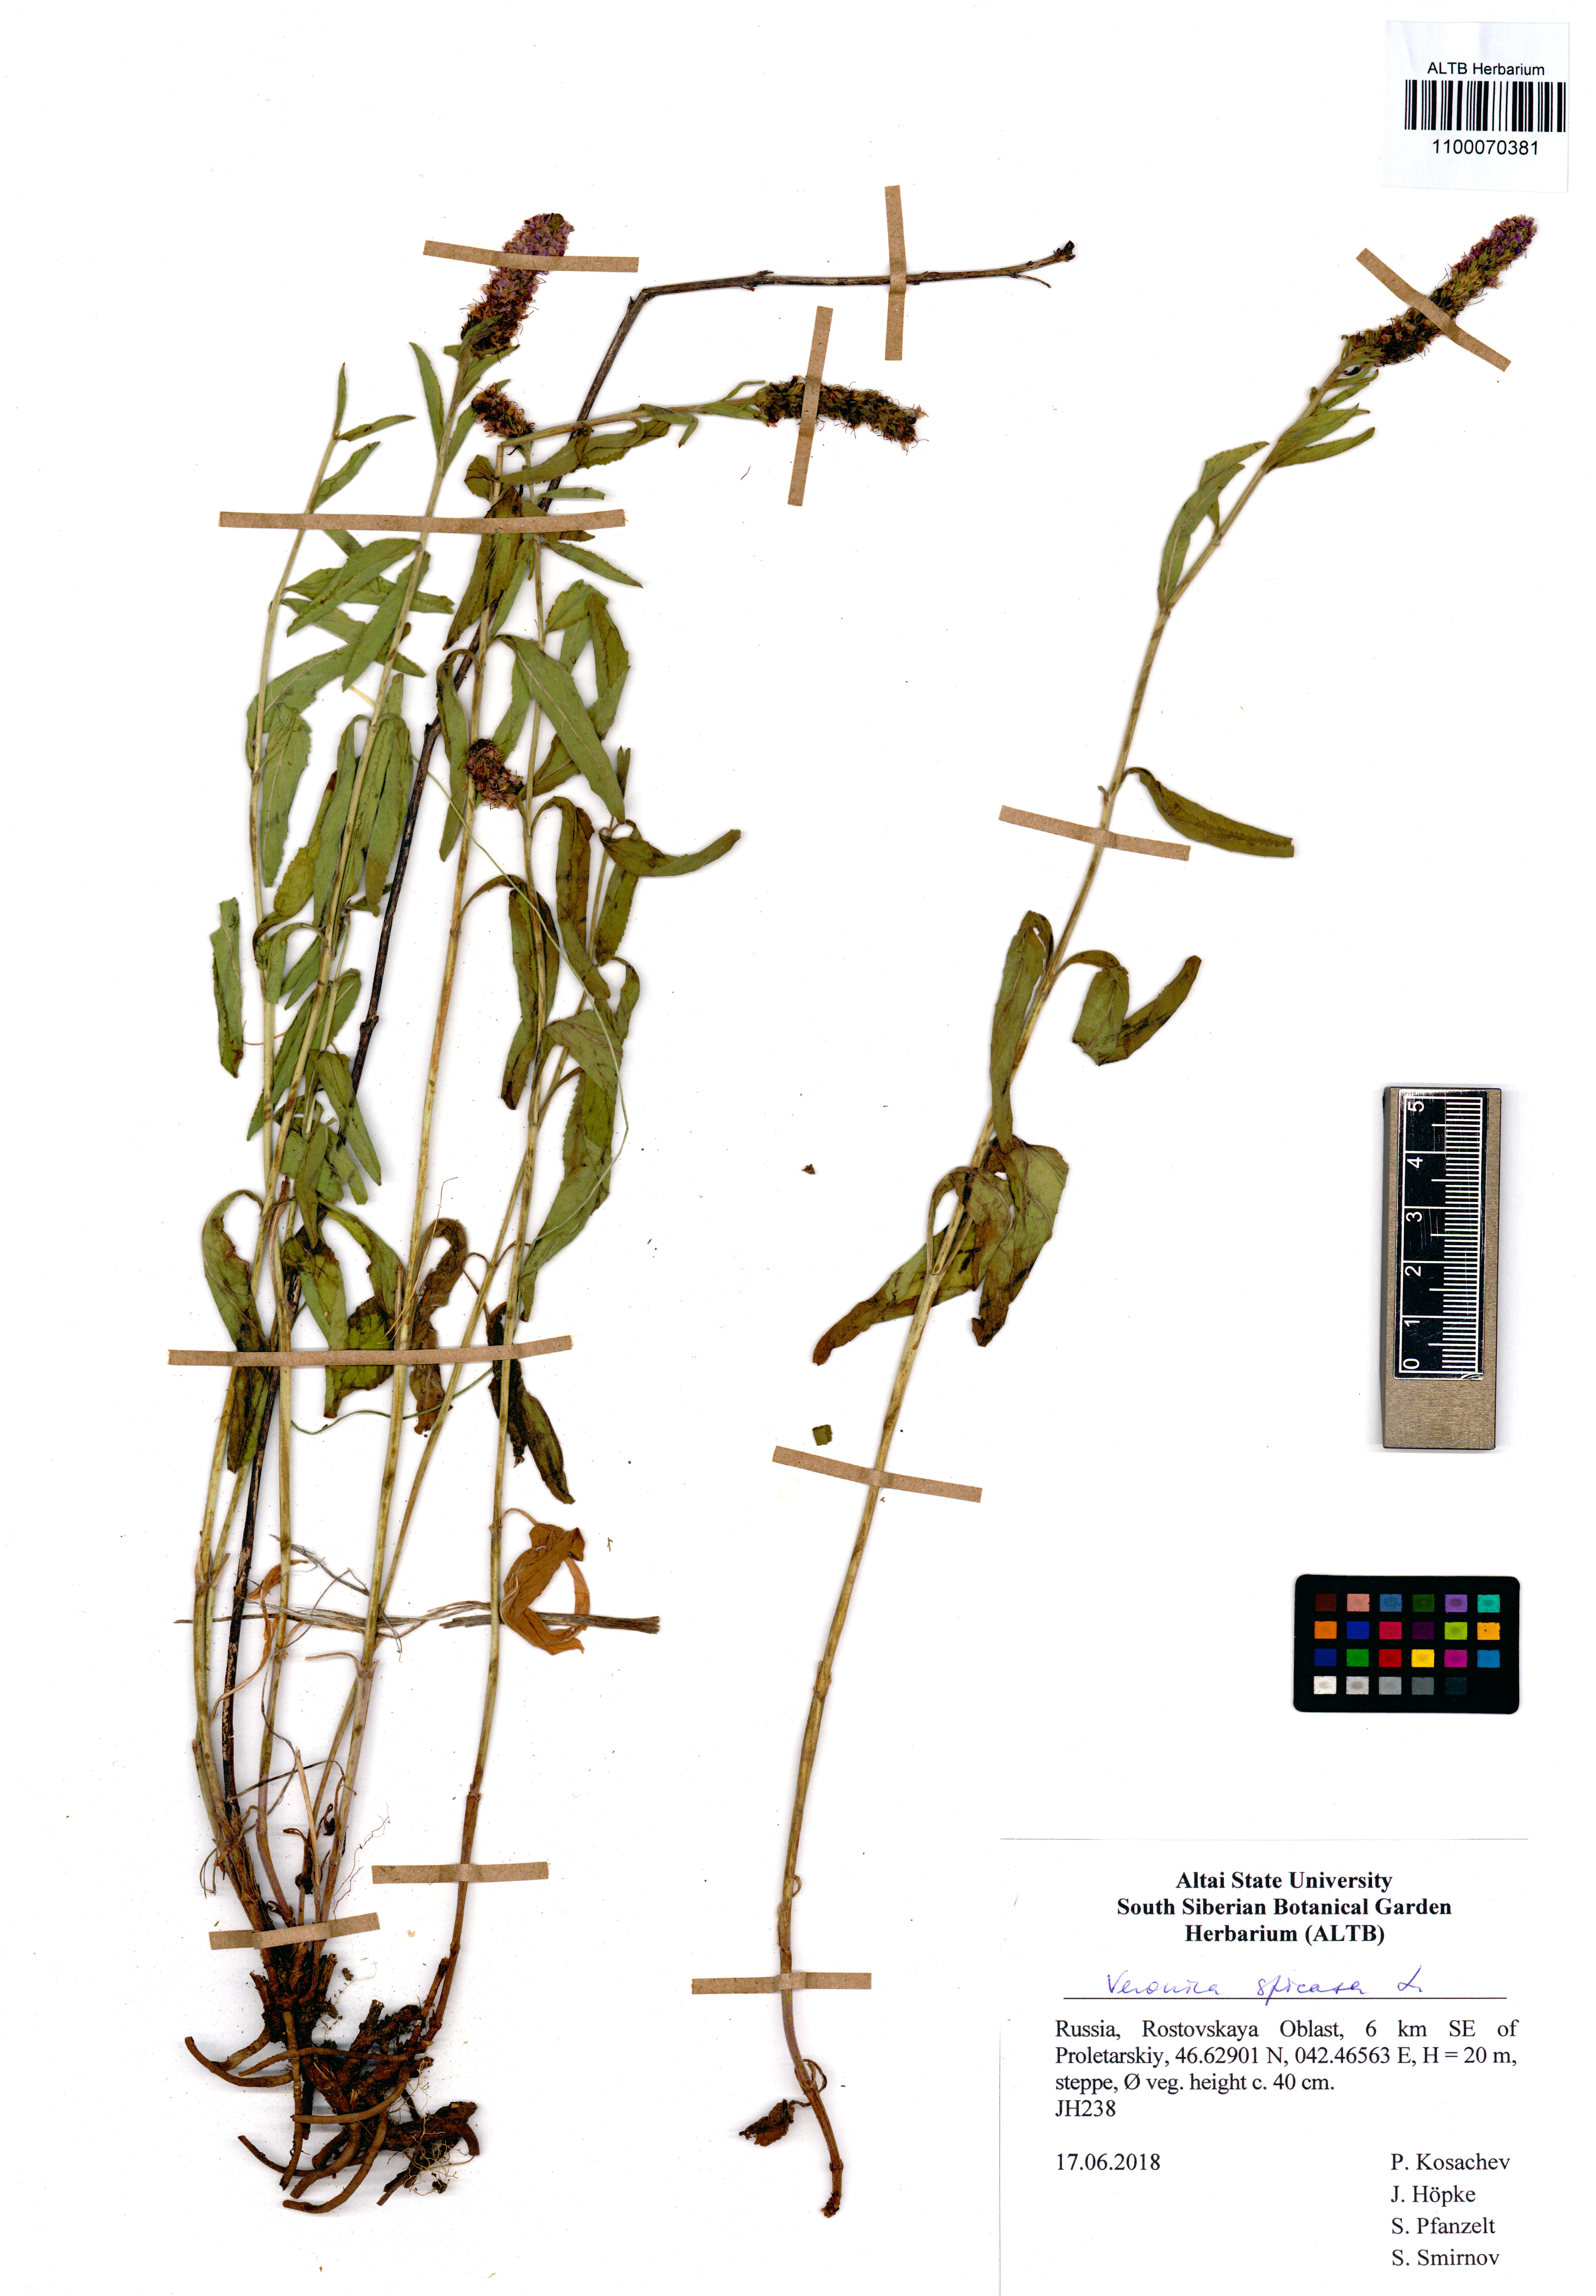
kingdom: Plantae
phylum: Tracheophyta
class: Magnoliopsida
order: Lamiales
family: Plantaginaceae
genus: Veronica
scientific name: Veronica spicata
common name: Spiked speedwell
